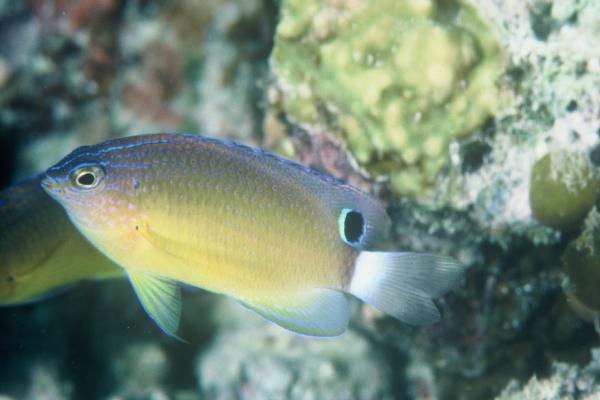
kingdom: Animalia
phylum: Chordata
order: Perciformes
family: Pomacentridae
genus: Pomacentrus
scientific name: Pomacentrus bankanensis
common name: Speckled damsel
